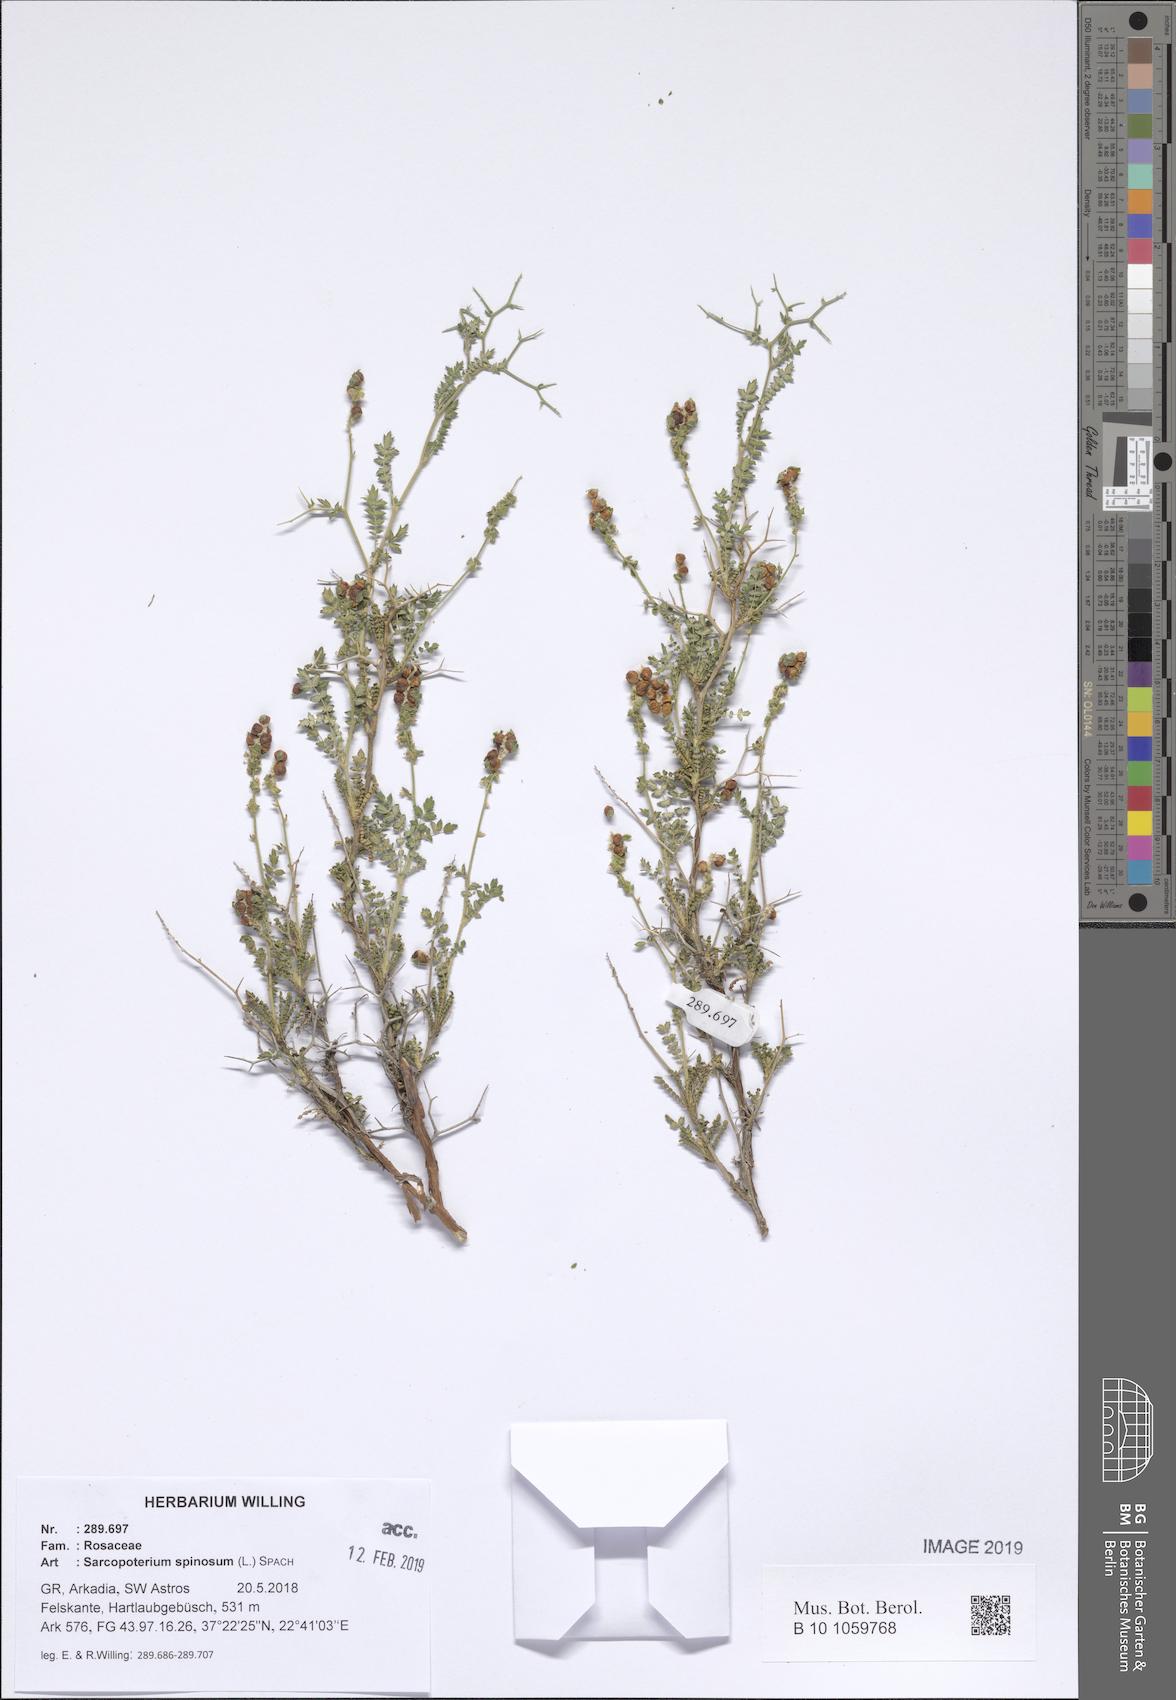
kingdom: Plantae
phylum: Tracheophyta
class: Magnoliopsida
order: Rosales
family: Rosaceae
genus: Sarcopoterium
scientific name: Sarcopoterium spinosum
